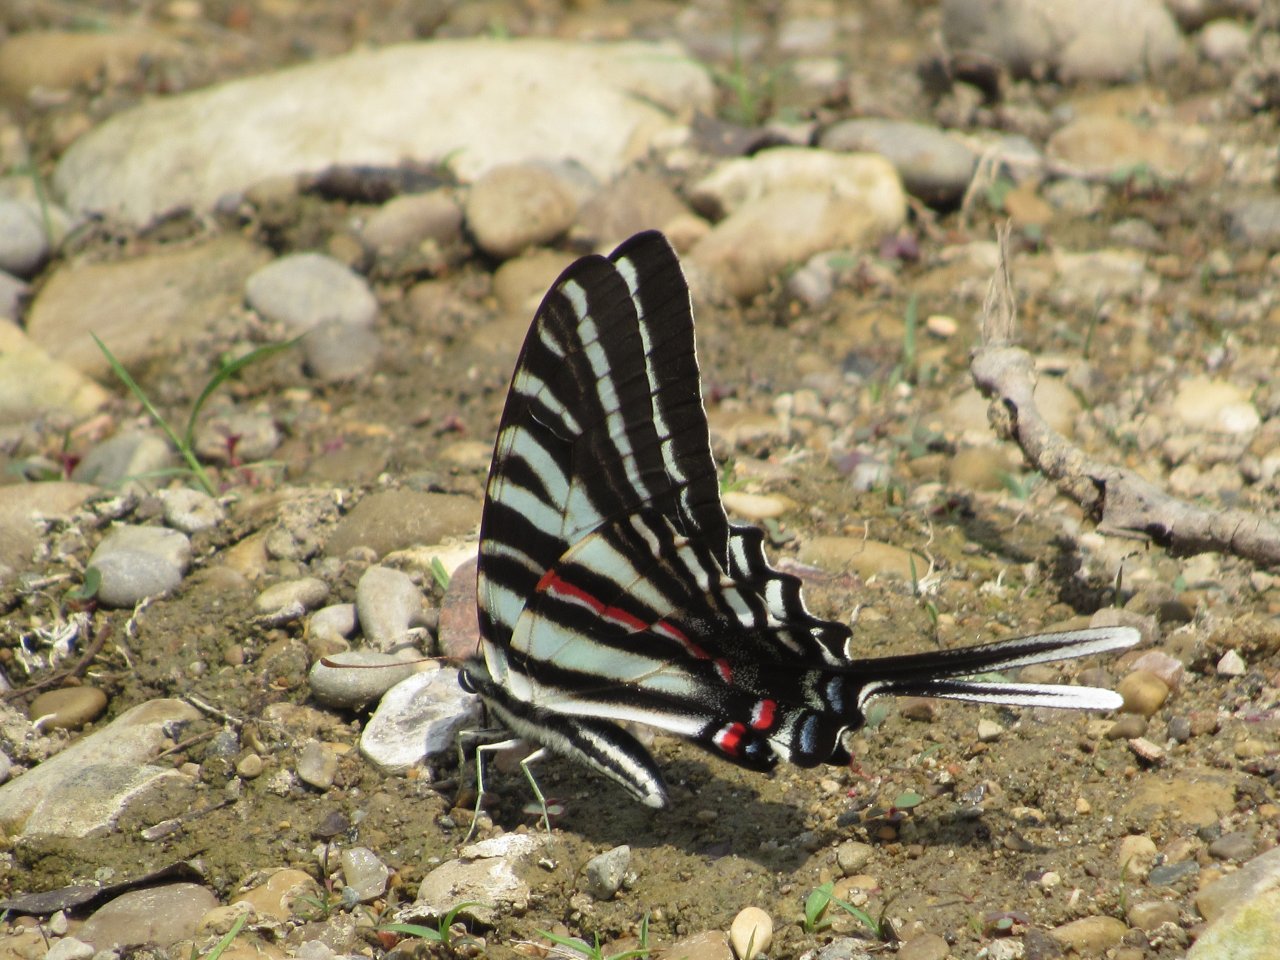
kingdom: Animalia
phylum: Arthropoda
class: Insecta
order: Lepidoptera
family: Papilionidae
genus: Protographium
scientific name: Protographium marcellus
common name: Zebra Swallowtail
